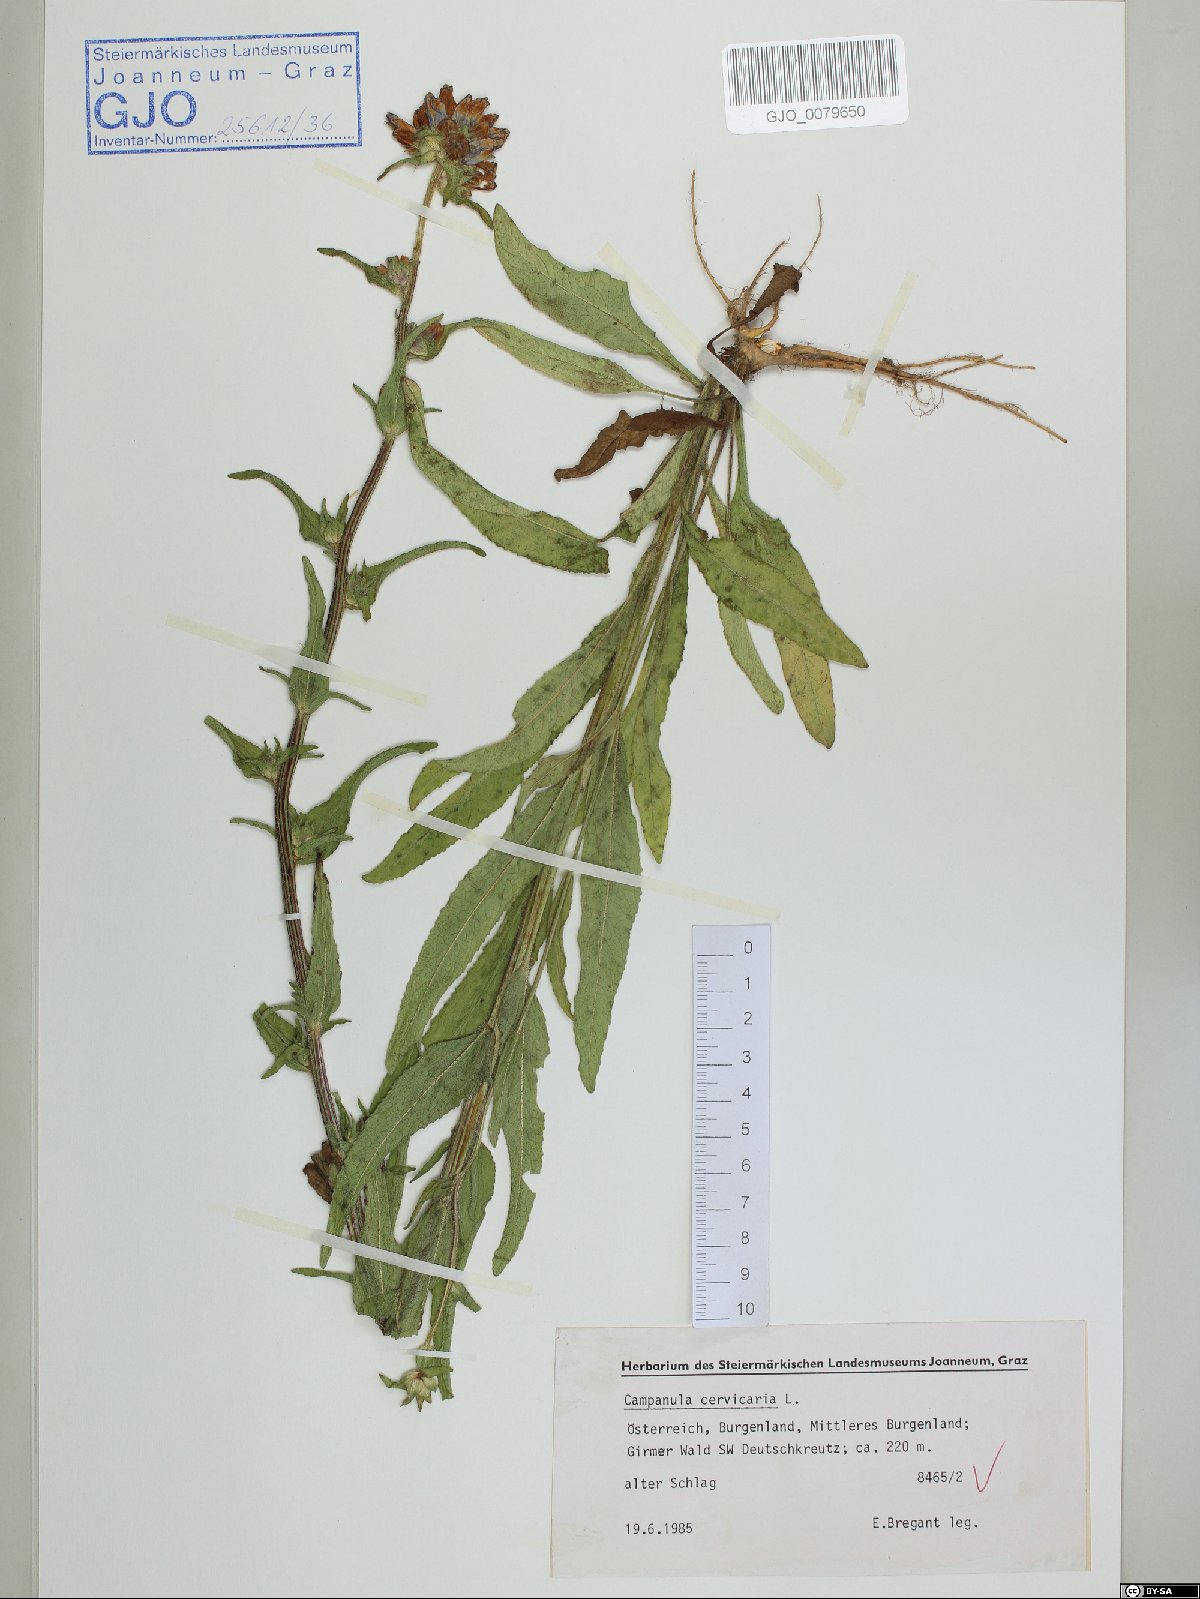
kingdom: Plantae
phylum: Tracheophyta
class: Magnoliopsida
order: Asterales
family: Campanulaceae
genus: Campanula
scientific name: Campanula cervicaria
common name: Bristly bellflower
